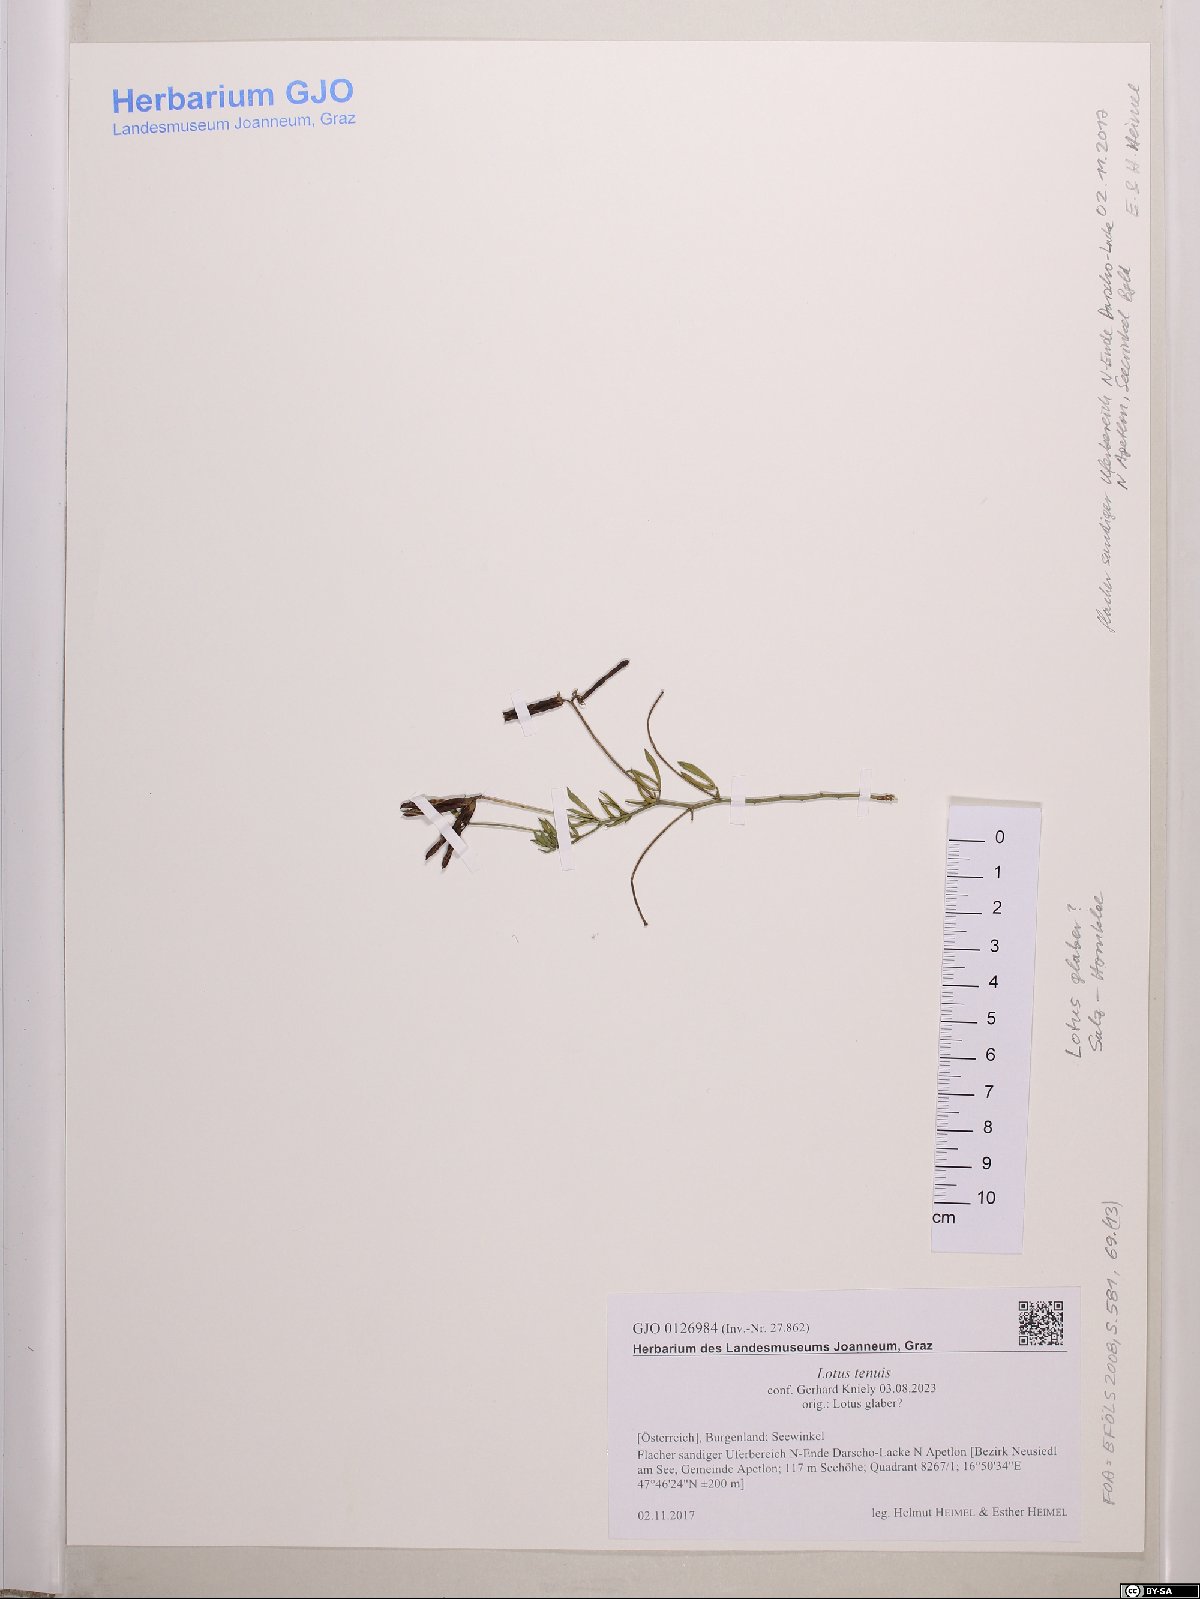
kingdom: Plantae
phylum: Tracheophyta
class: Magnoliopsida
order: Fabales
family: Fabaceae
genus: Lotus
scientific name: Lotus tenuis
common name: Narrow-leaved bird's-foot-trefoil
